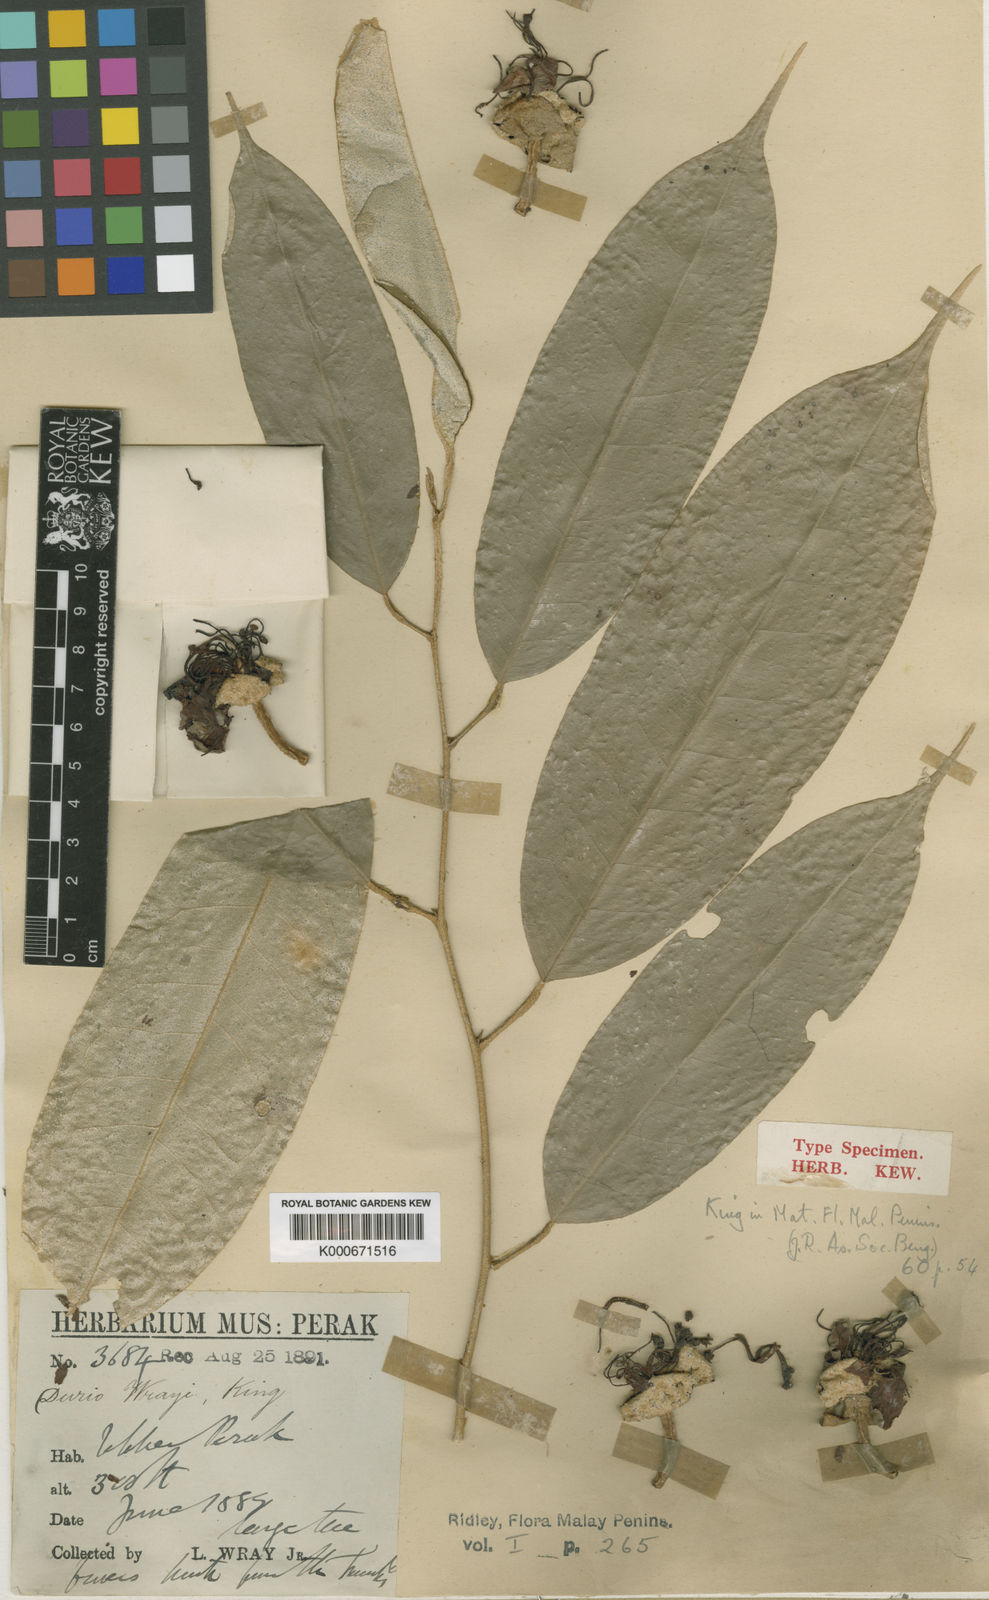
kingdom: Plantae
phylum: Tracheophyta
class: Magnoliopsida
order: Malvales
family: Malvaceae
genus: Durio
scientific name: Durio lowianus
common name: Durian
